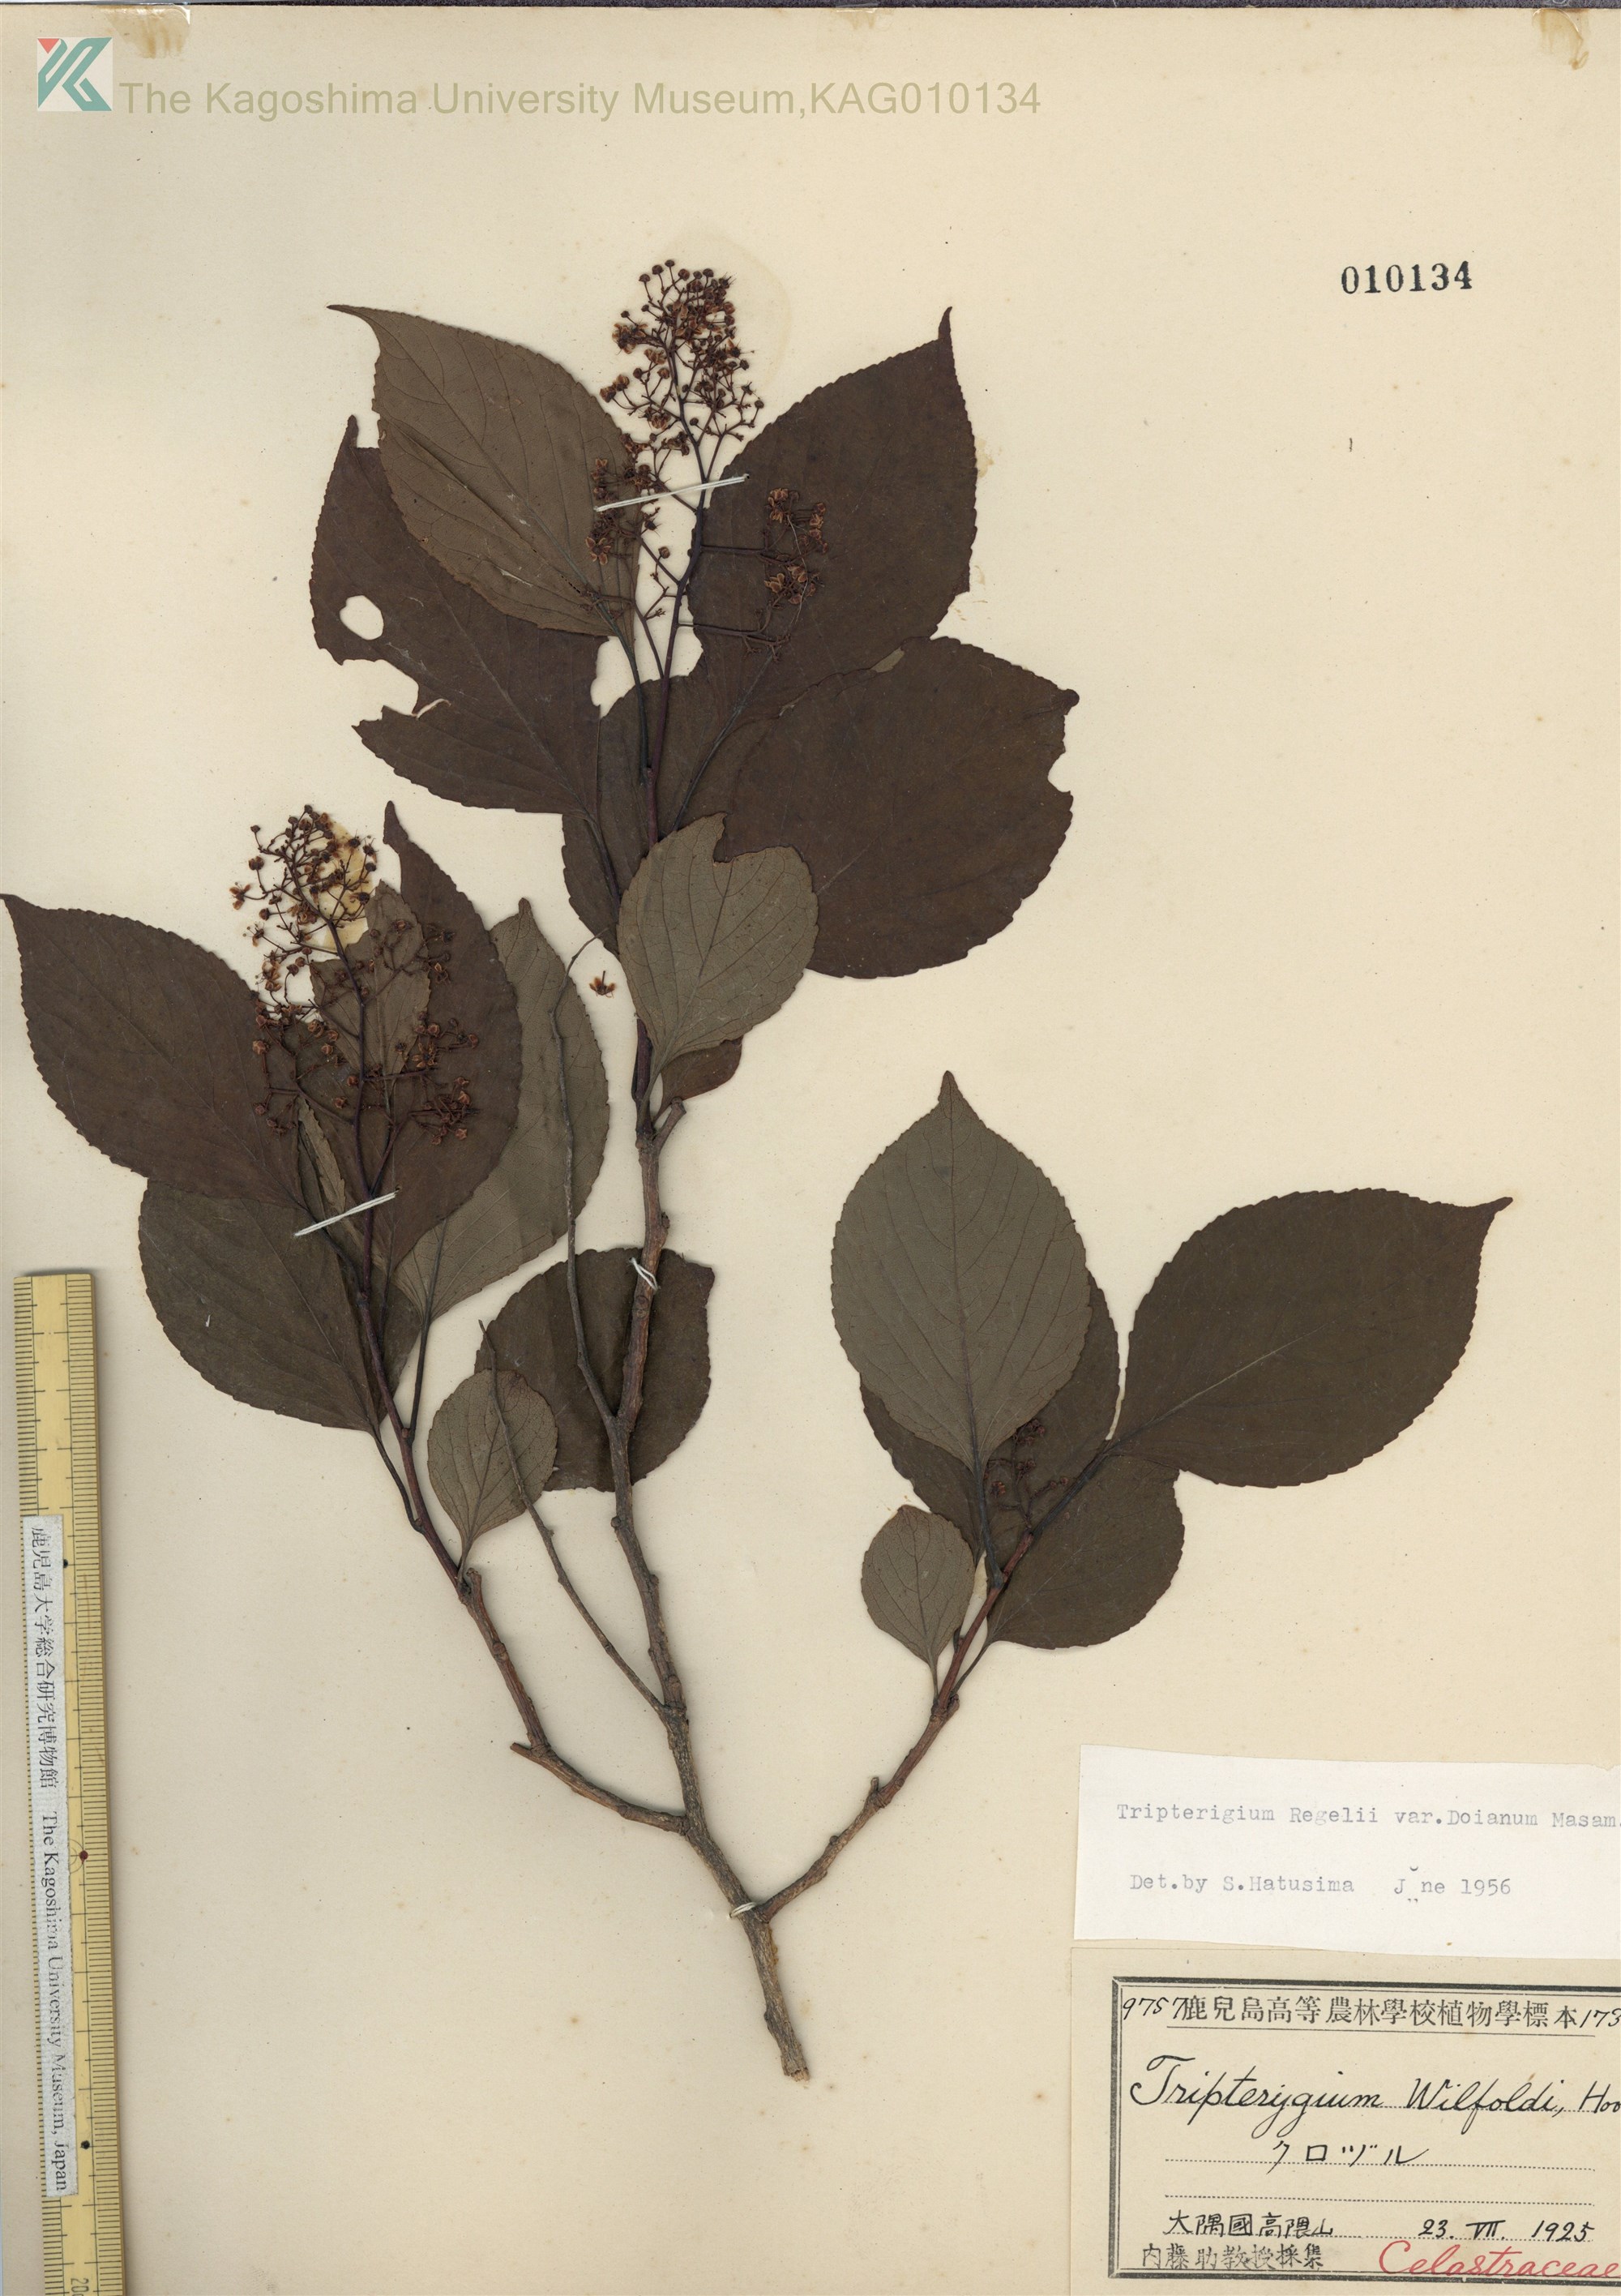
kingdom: Plantae
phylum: Tracheophyta
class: Magnoliopsida
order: Celastrales
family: Celastraceae
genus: Tripterygium
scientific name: Tripterygium doianum
